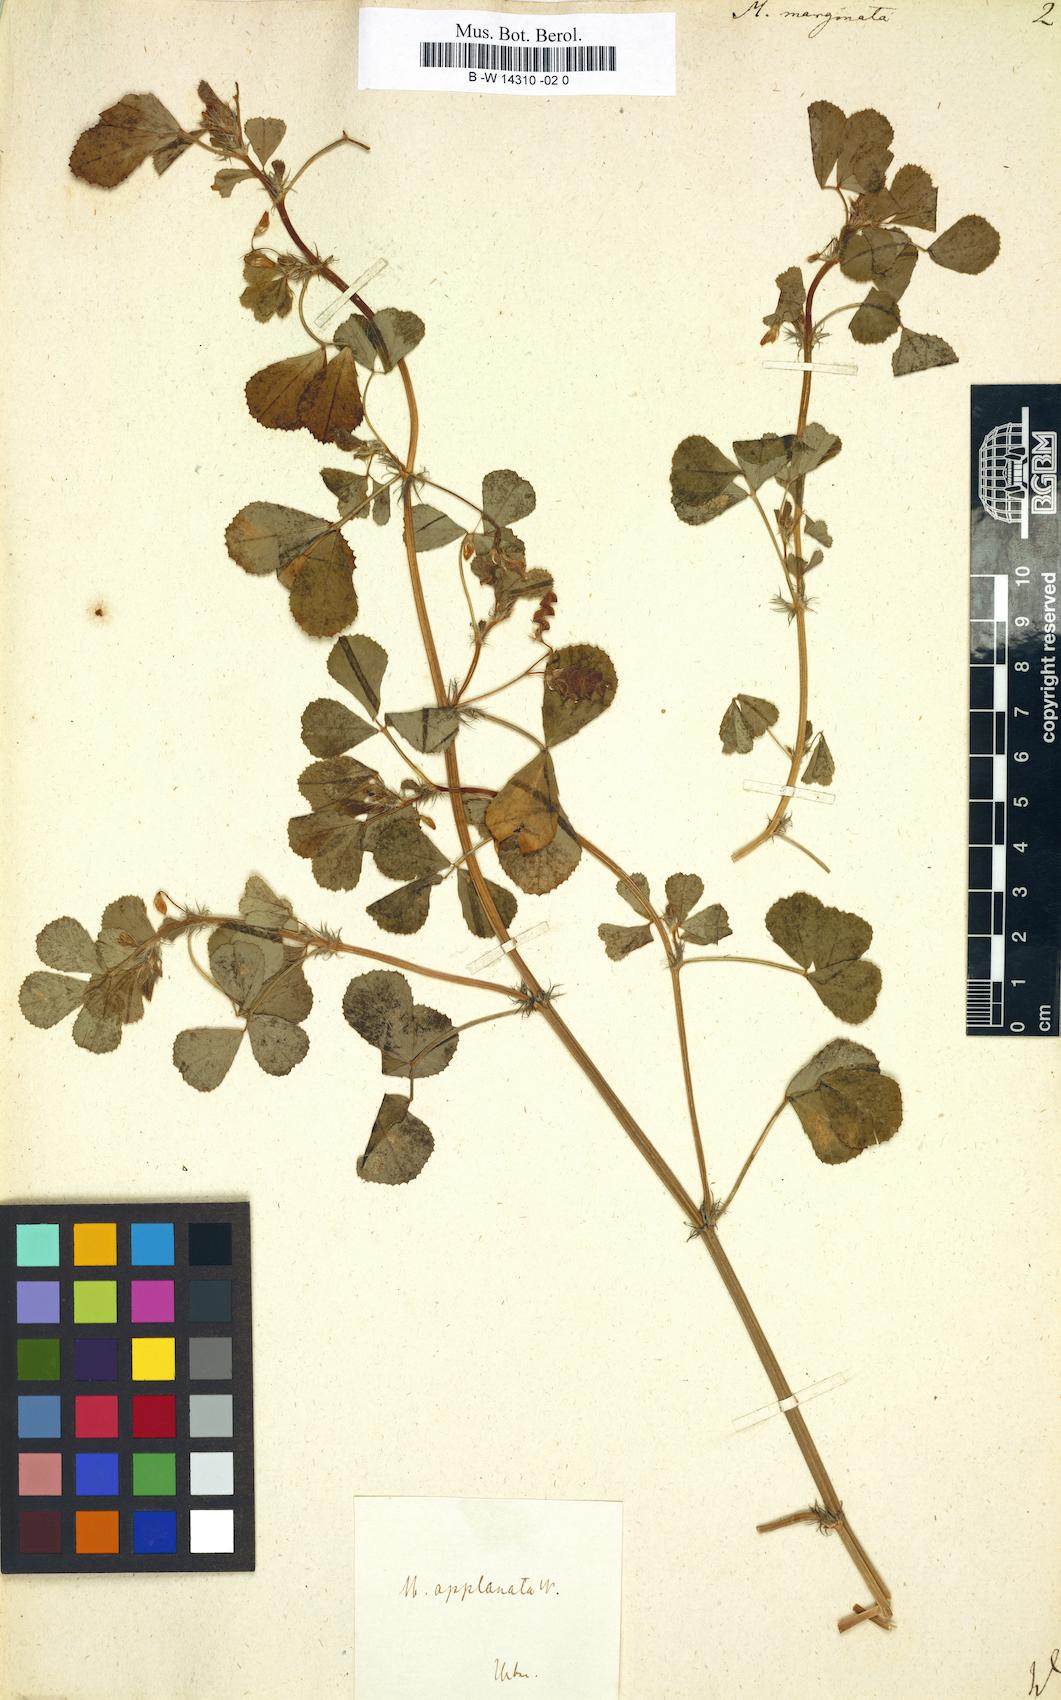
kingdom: Plantae
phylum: Tracheophyta
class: Magnoliopsida
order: Fabales
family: Fabaceae
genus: Medicago
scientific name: Medicago orbicularis
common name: Button medick
